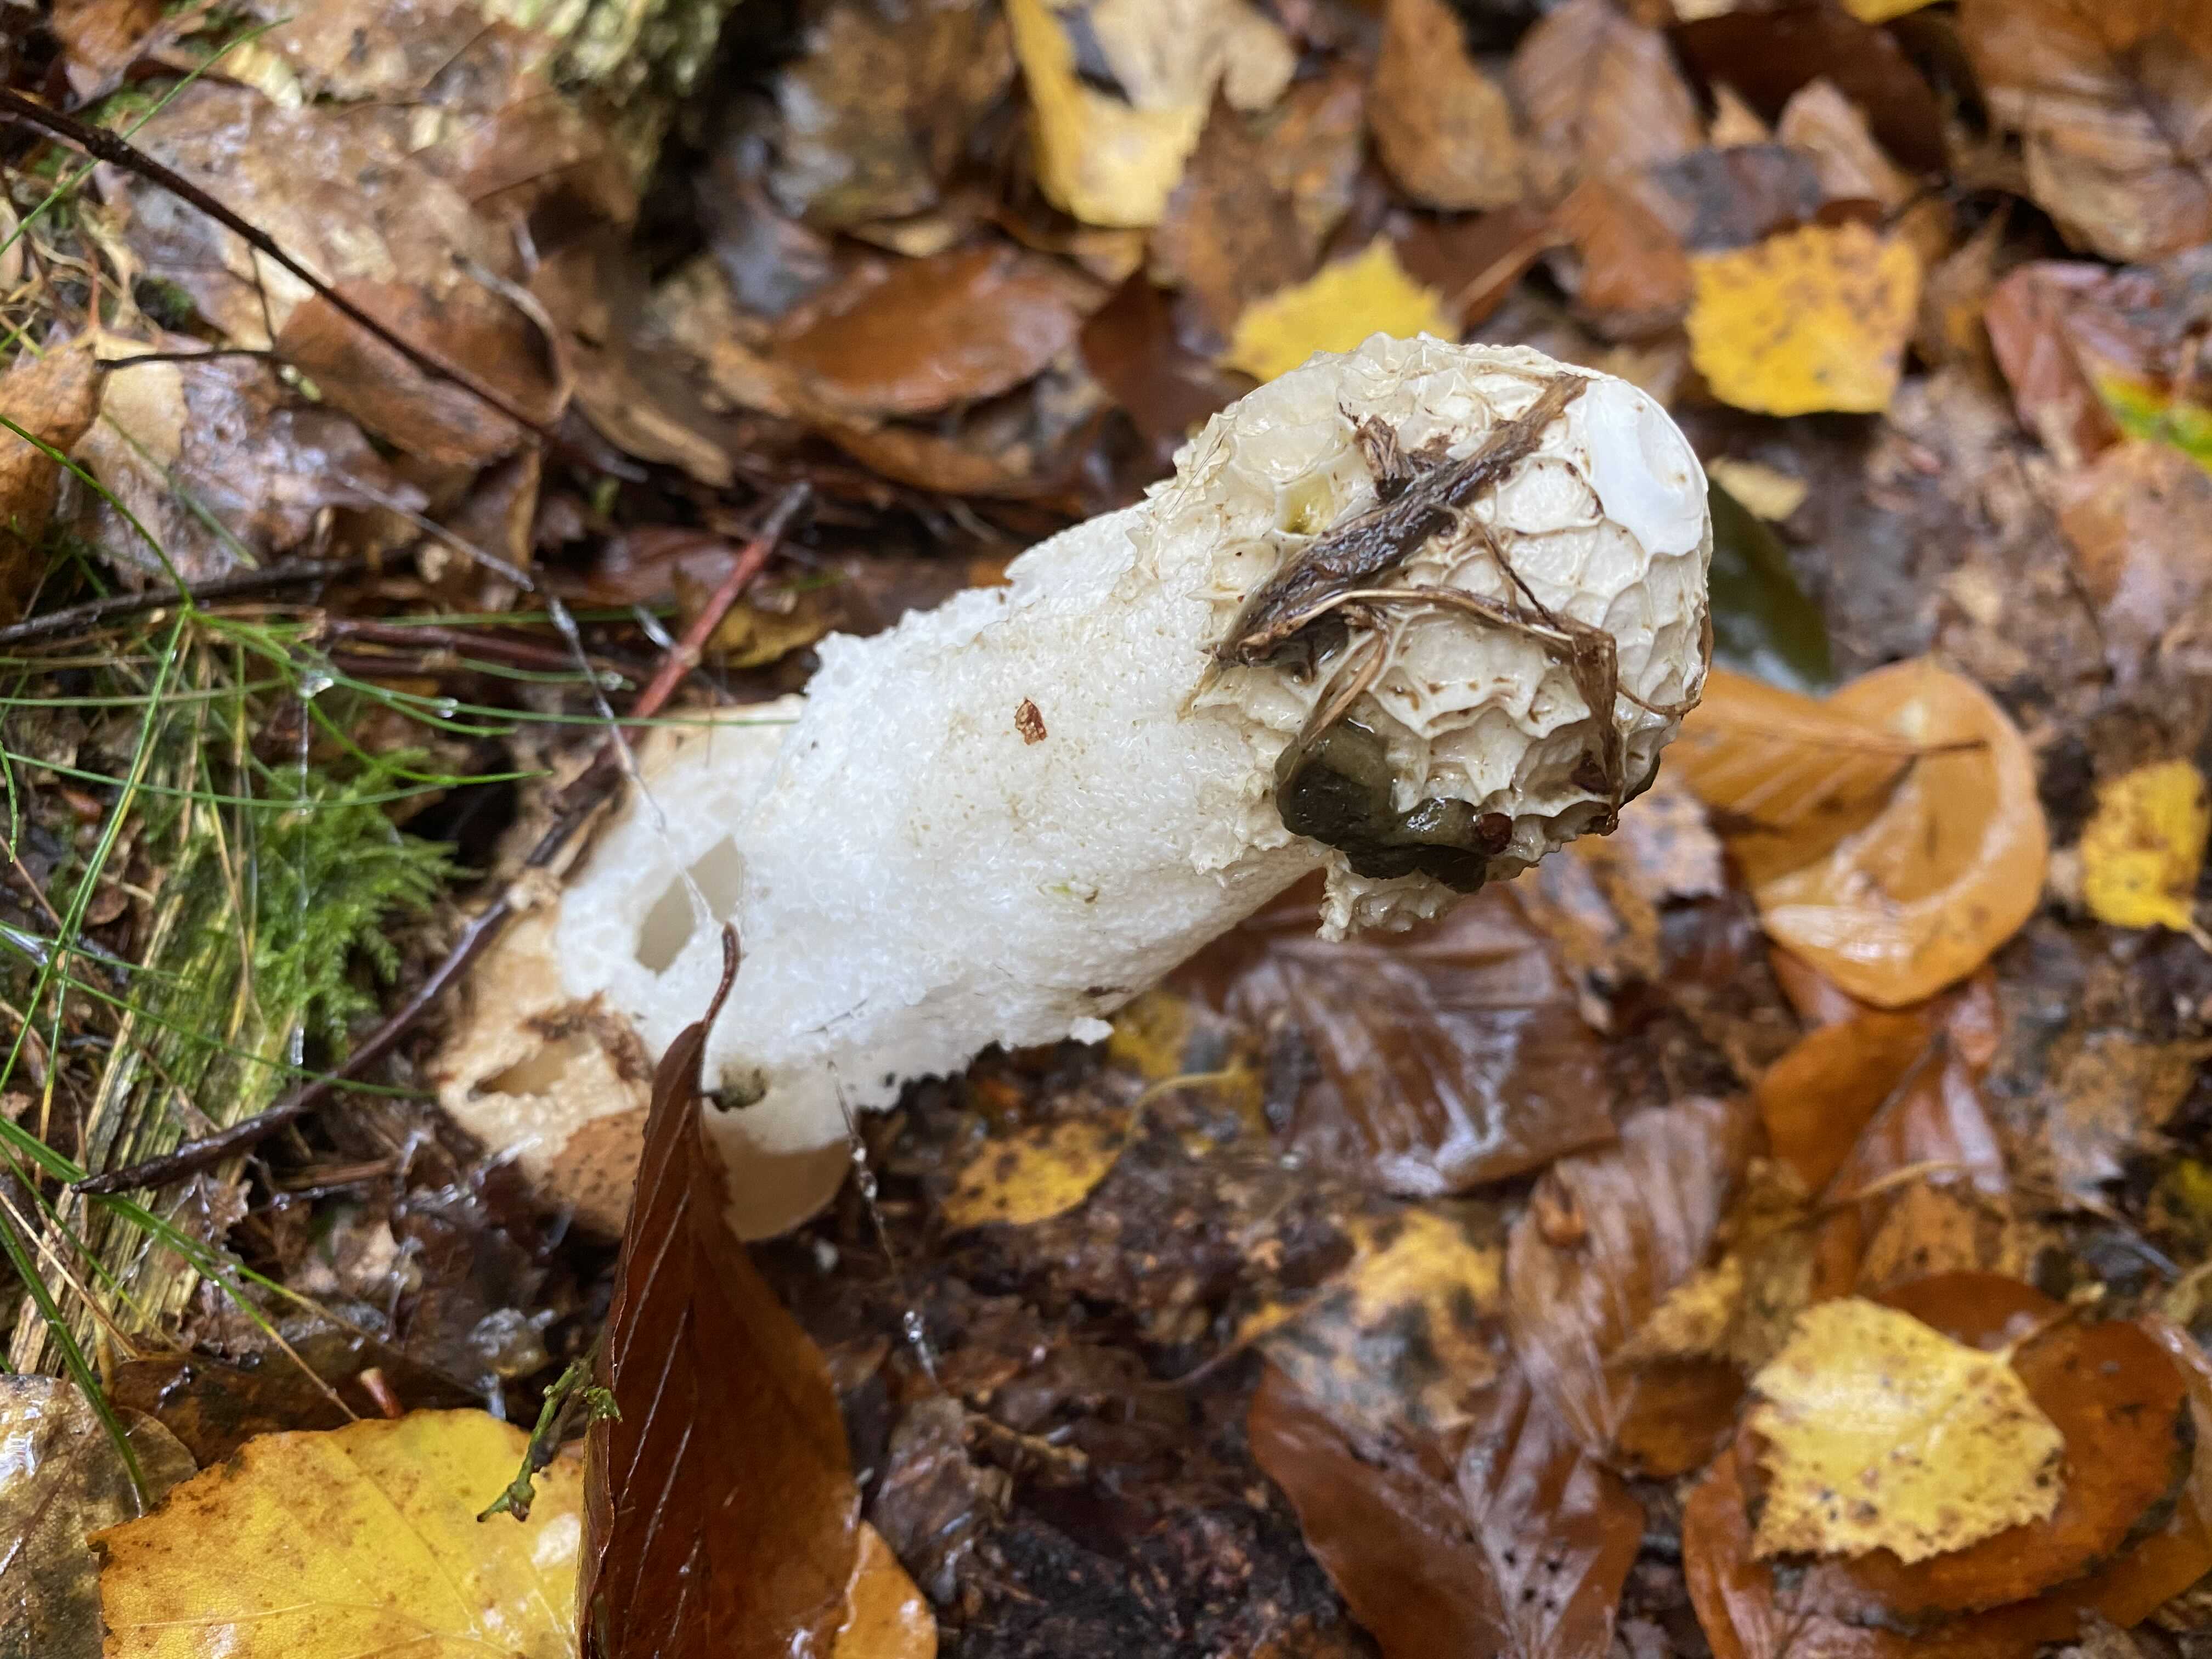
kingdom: Fungi
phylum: Basidiomycota
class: Agaricomycetes
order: Phallales
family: Phallaceae
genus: Phallus
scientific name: Phallus impudicus
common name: almindelig stinksvamp
